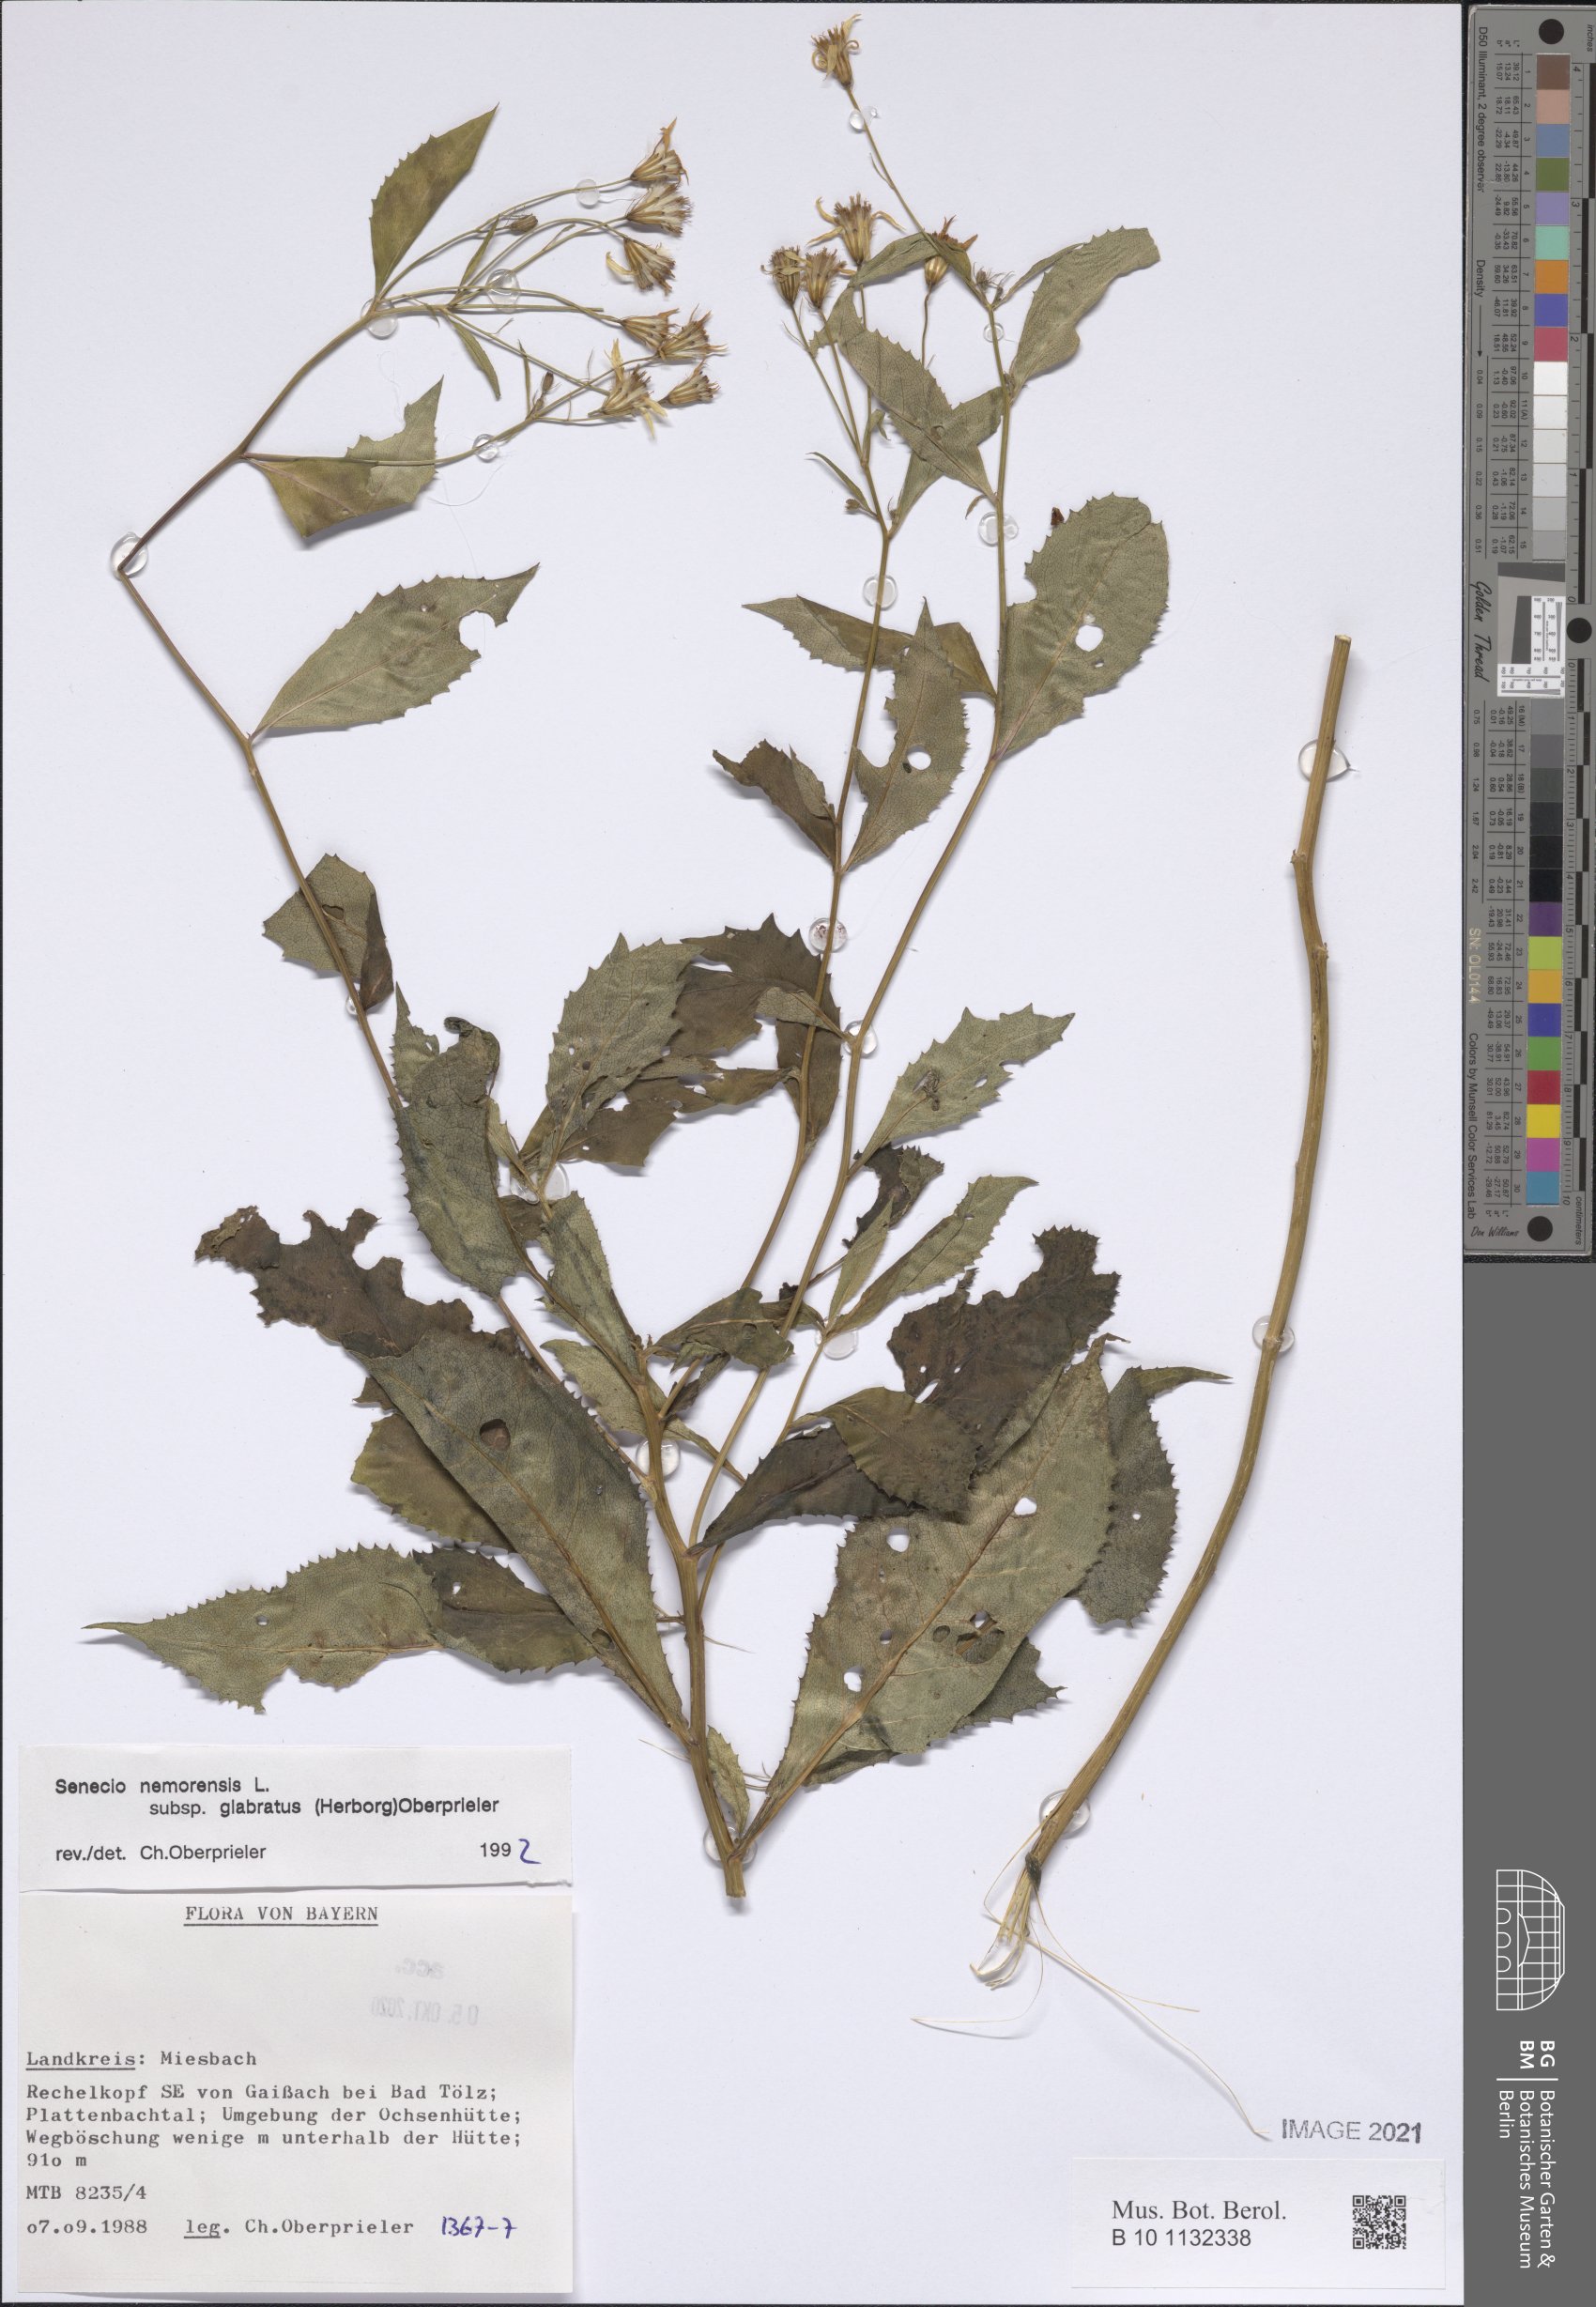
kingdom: Plantae
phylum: Tracheophyta
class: Magnoliopsida
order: Asterales
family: Asteraceae
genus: Senecio
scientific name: Senecio germanicus
